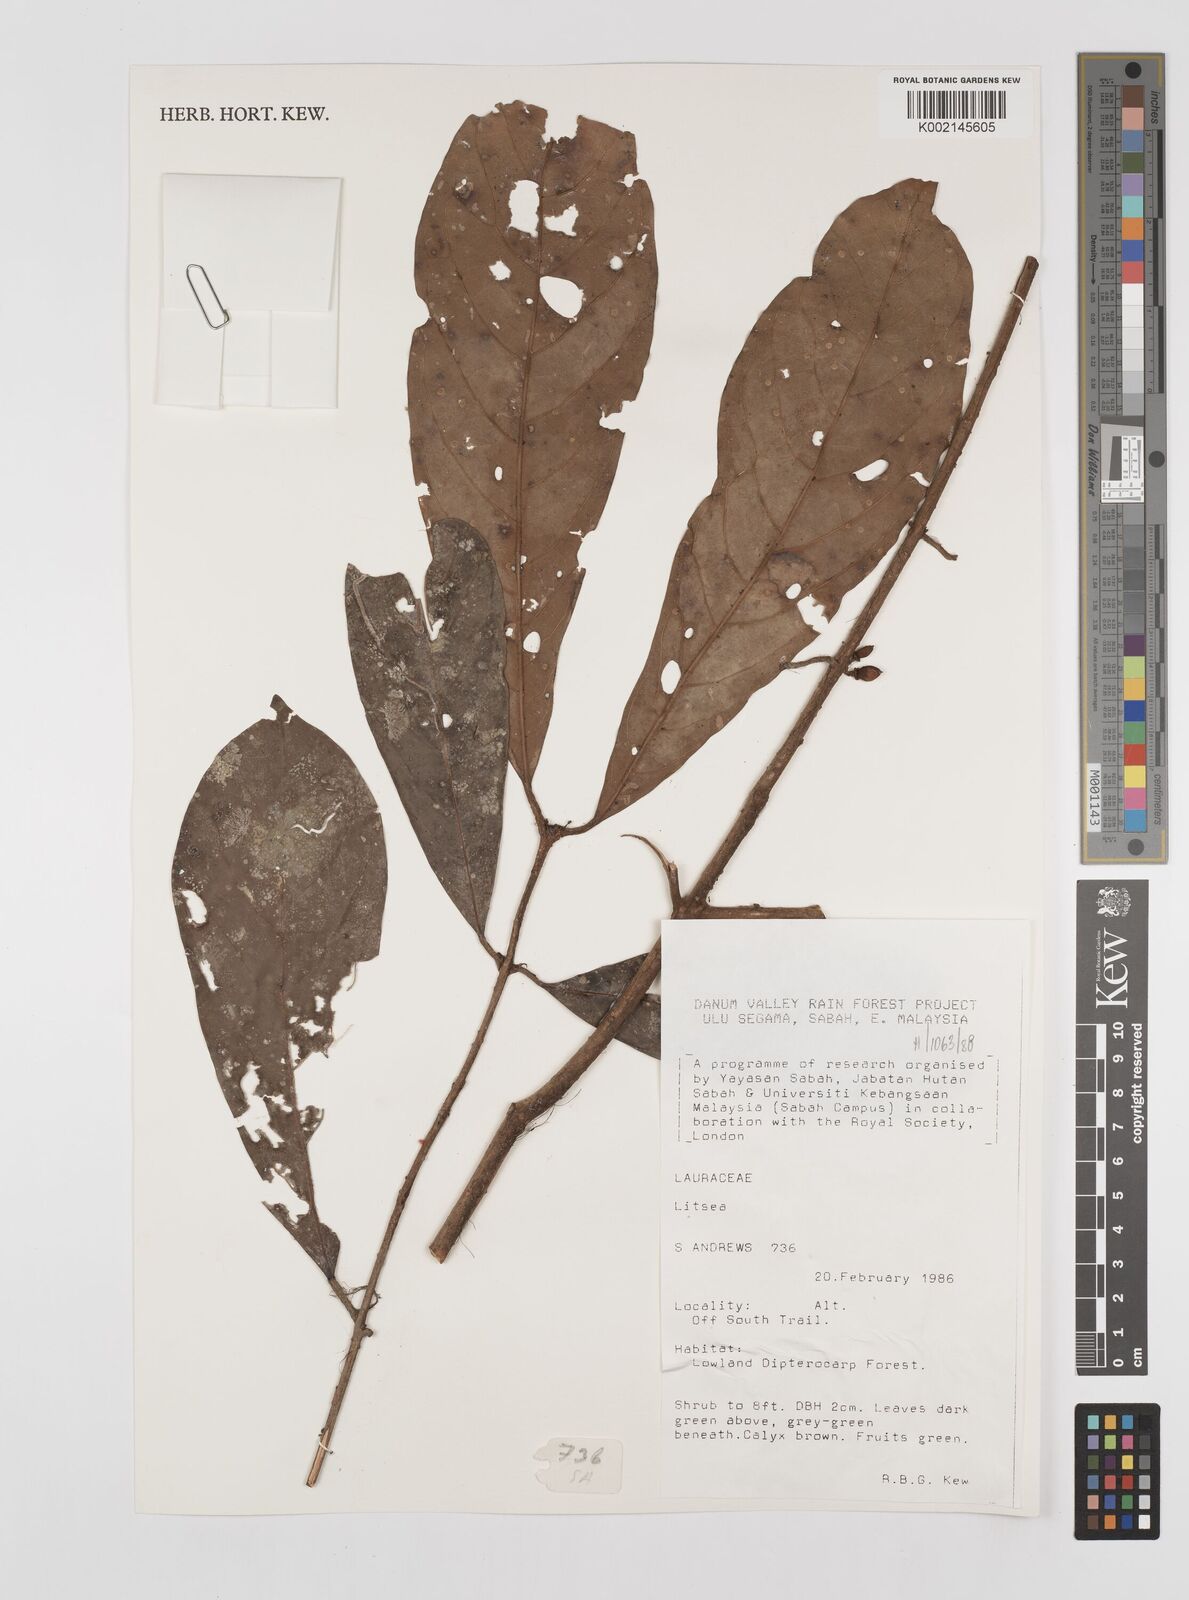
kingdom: Plantae
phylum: Tracheophyta
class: Magnoliopsida
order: Laurales
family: Lauraceae
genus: Litsea
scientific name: Litsea
